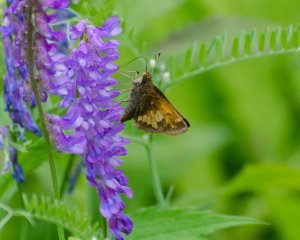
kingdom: Animalia
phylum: Arthropoda
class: Insecta
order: Lepidoptera
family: Hesperiidae
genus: Lon
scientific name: Lon hobomok
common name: Hobomok Skipper
